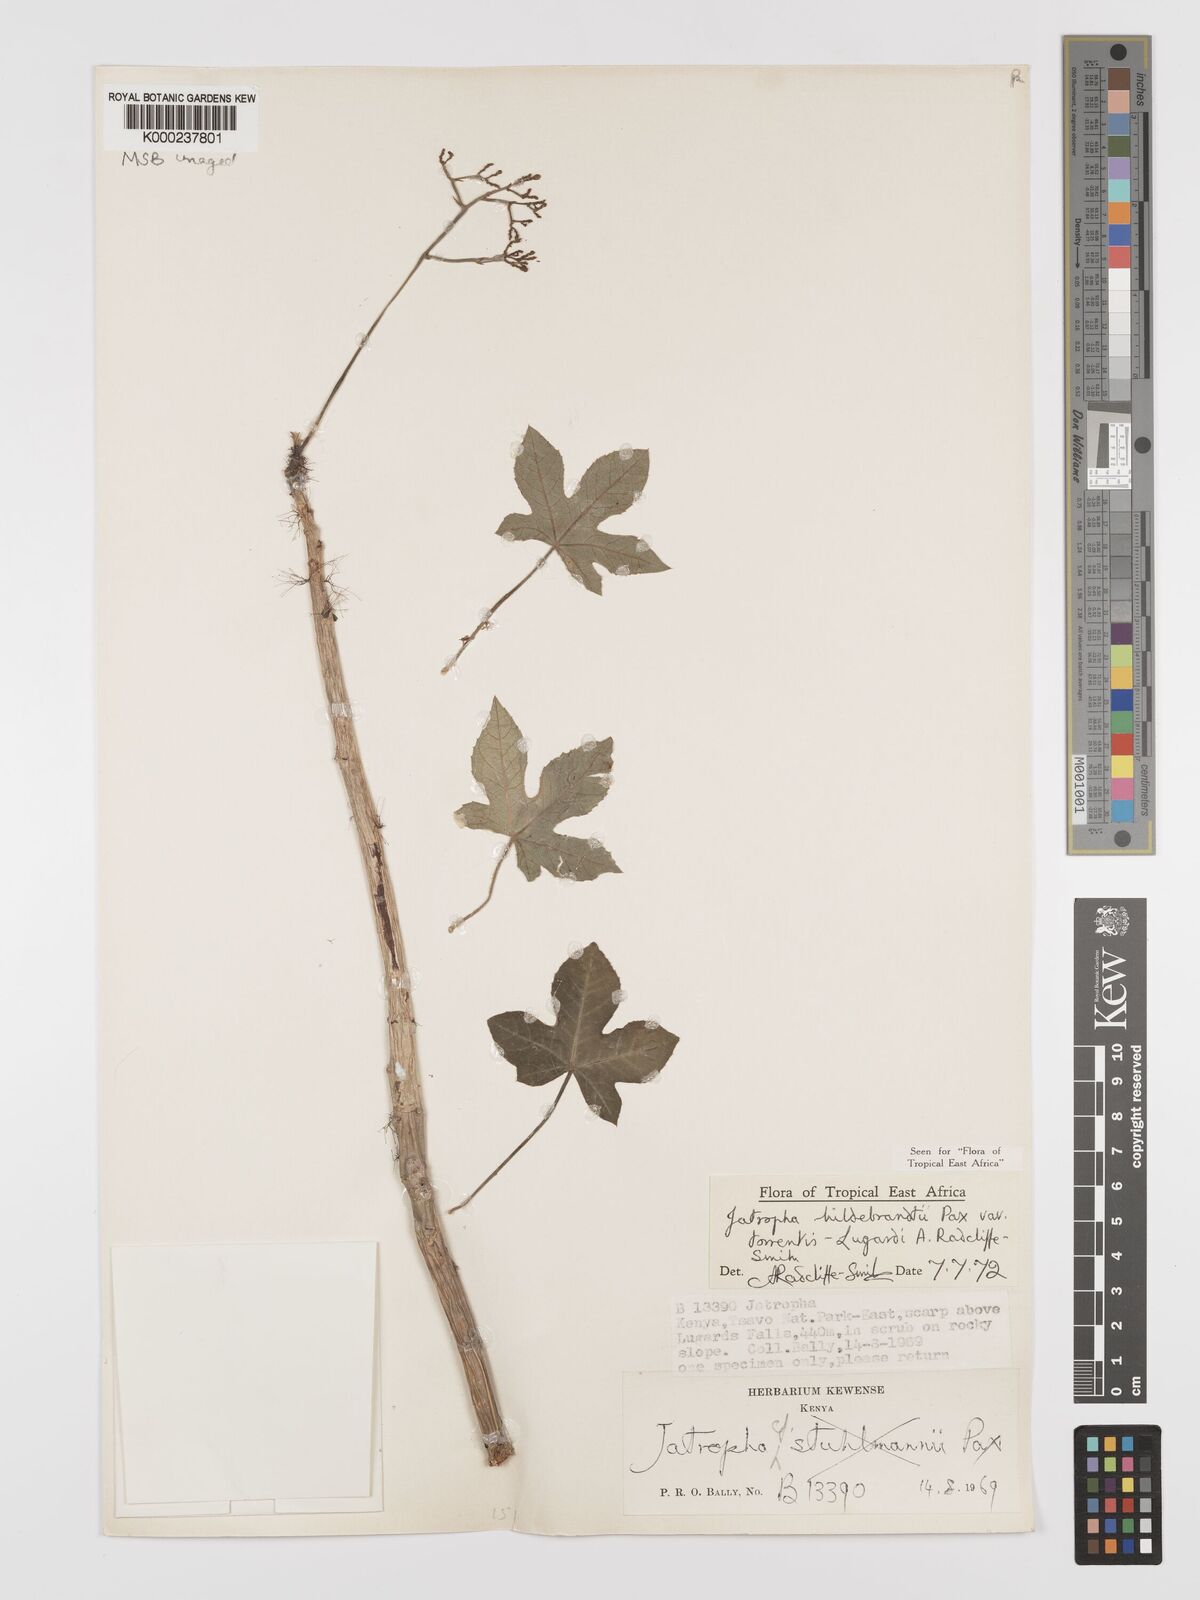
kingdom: Plantae
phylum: Tracheophyta
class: Magnoliopsida
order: Malpighiales
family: Euphorbiaceae
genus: Jatropha
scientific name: Jatropha hildebrandtii
